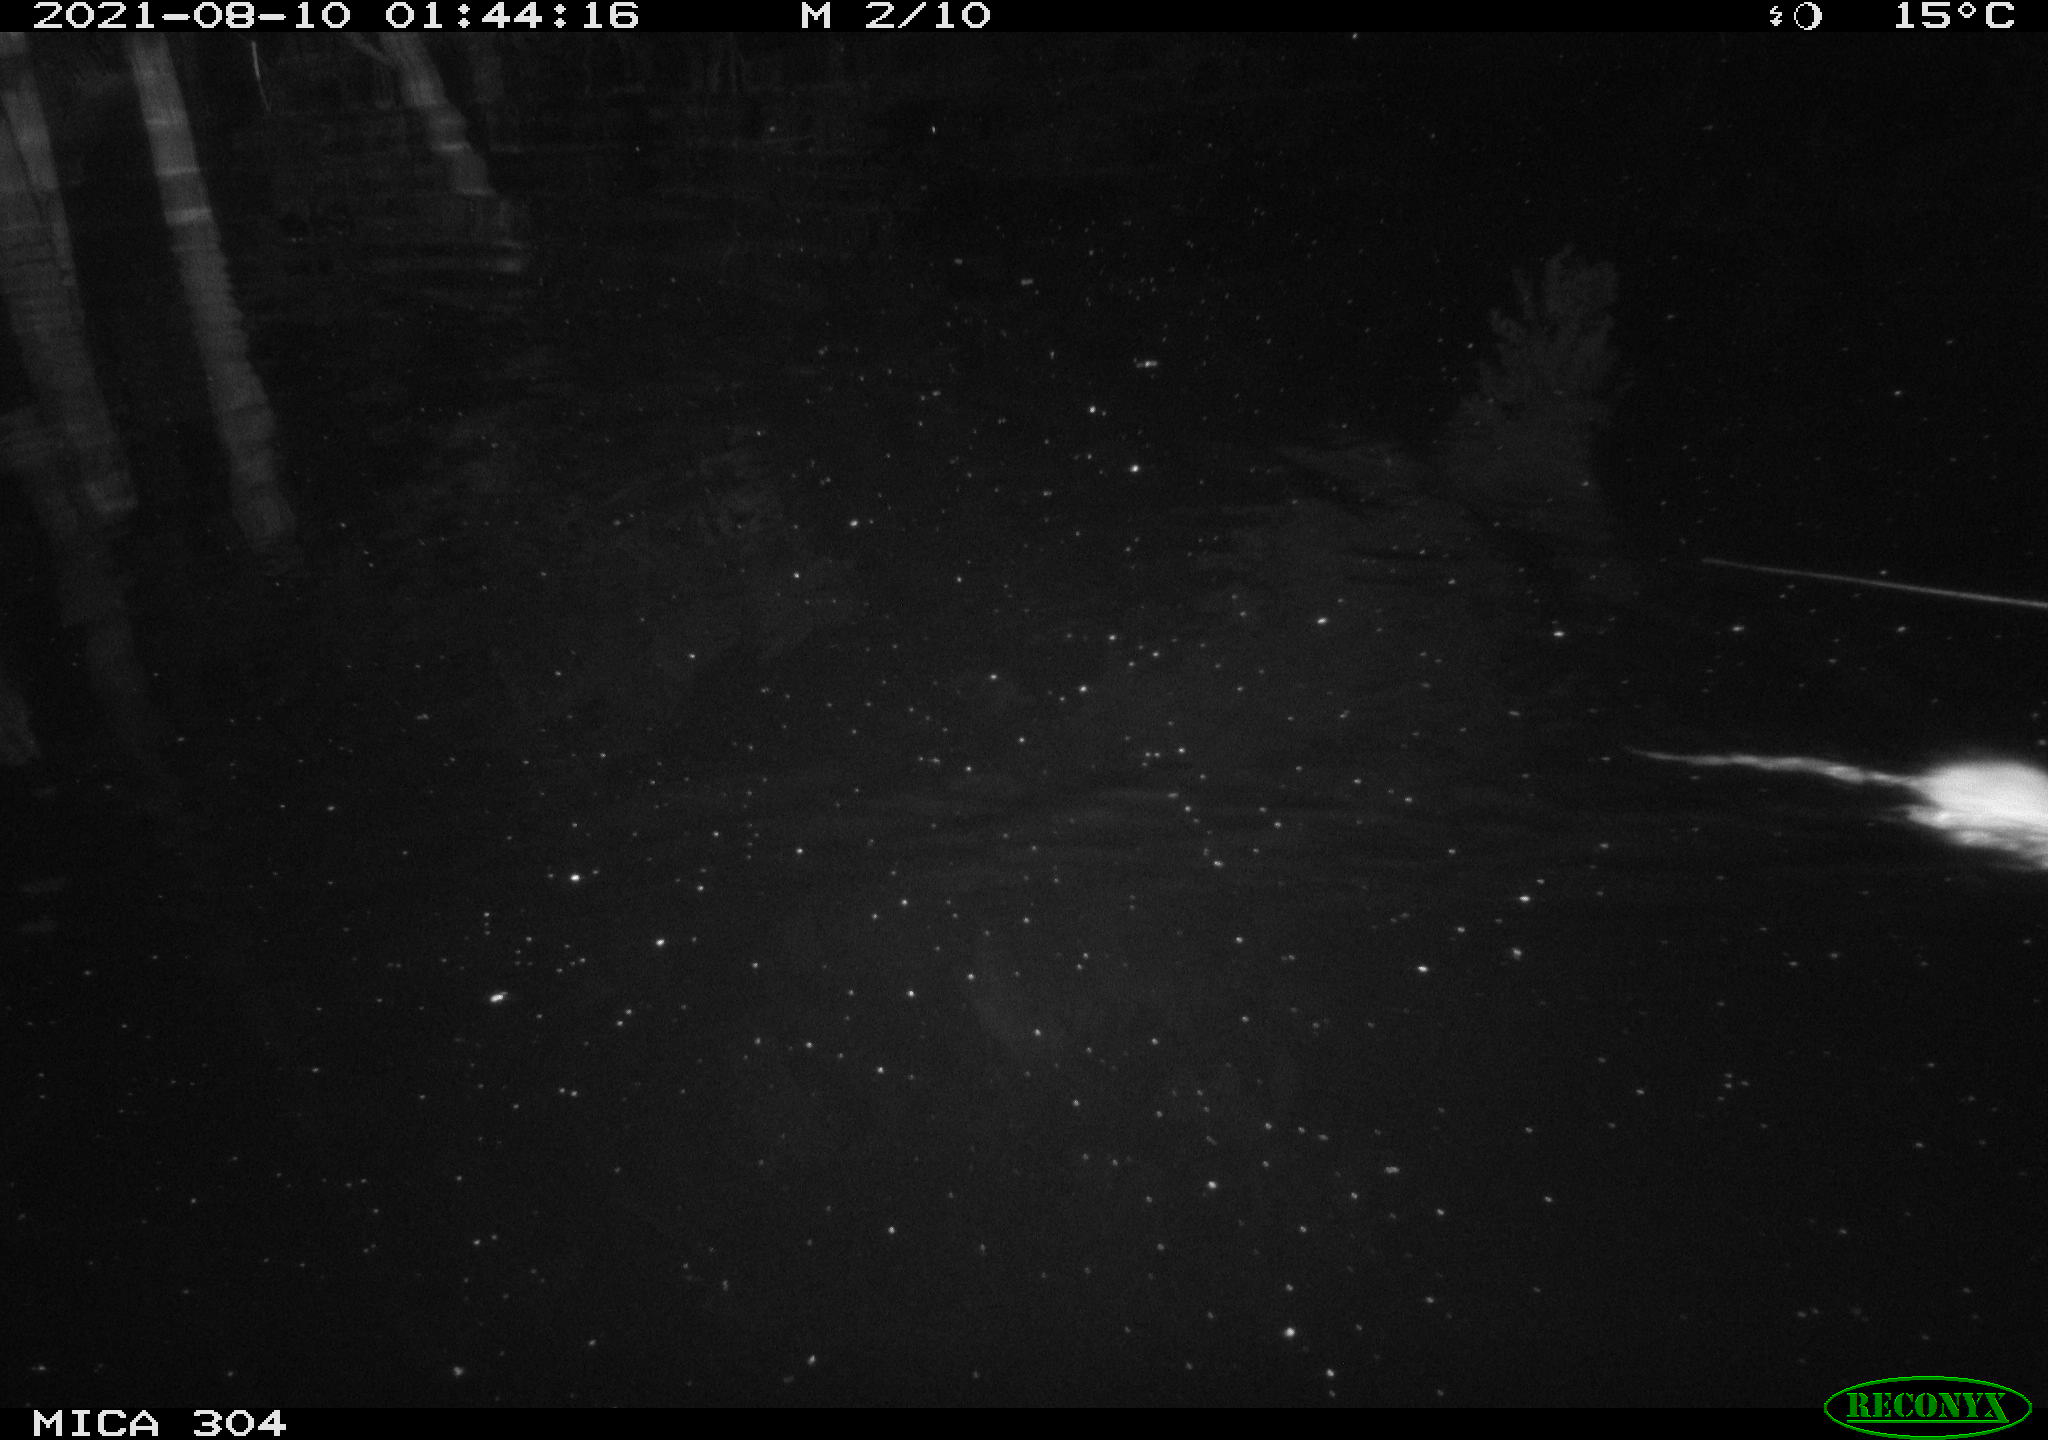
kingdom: Animalia
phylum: Chordata
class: Mammalia
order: Rodentia
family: Muridae
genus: Rattus
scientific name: Rattus norvegicus
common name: Brown rat
